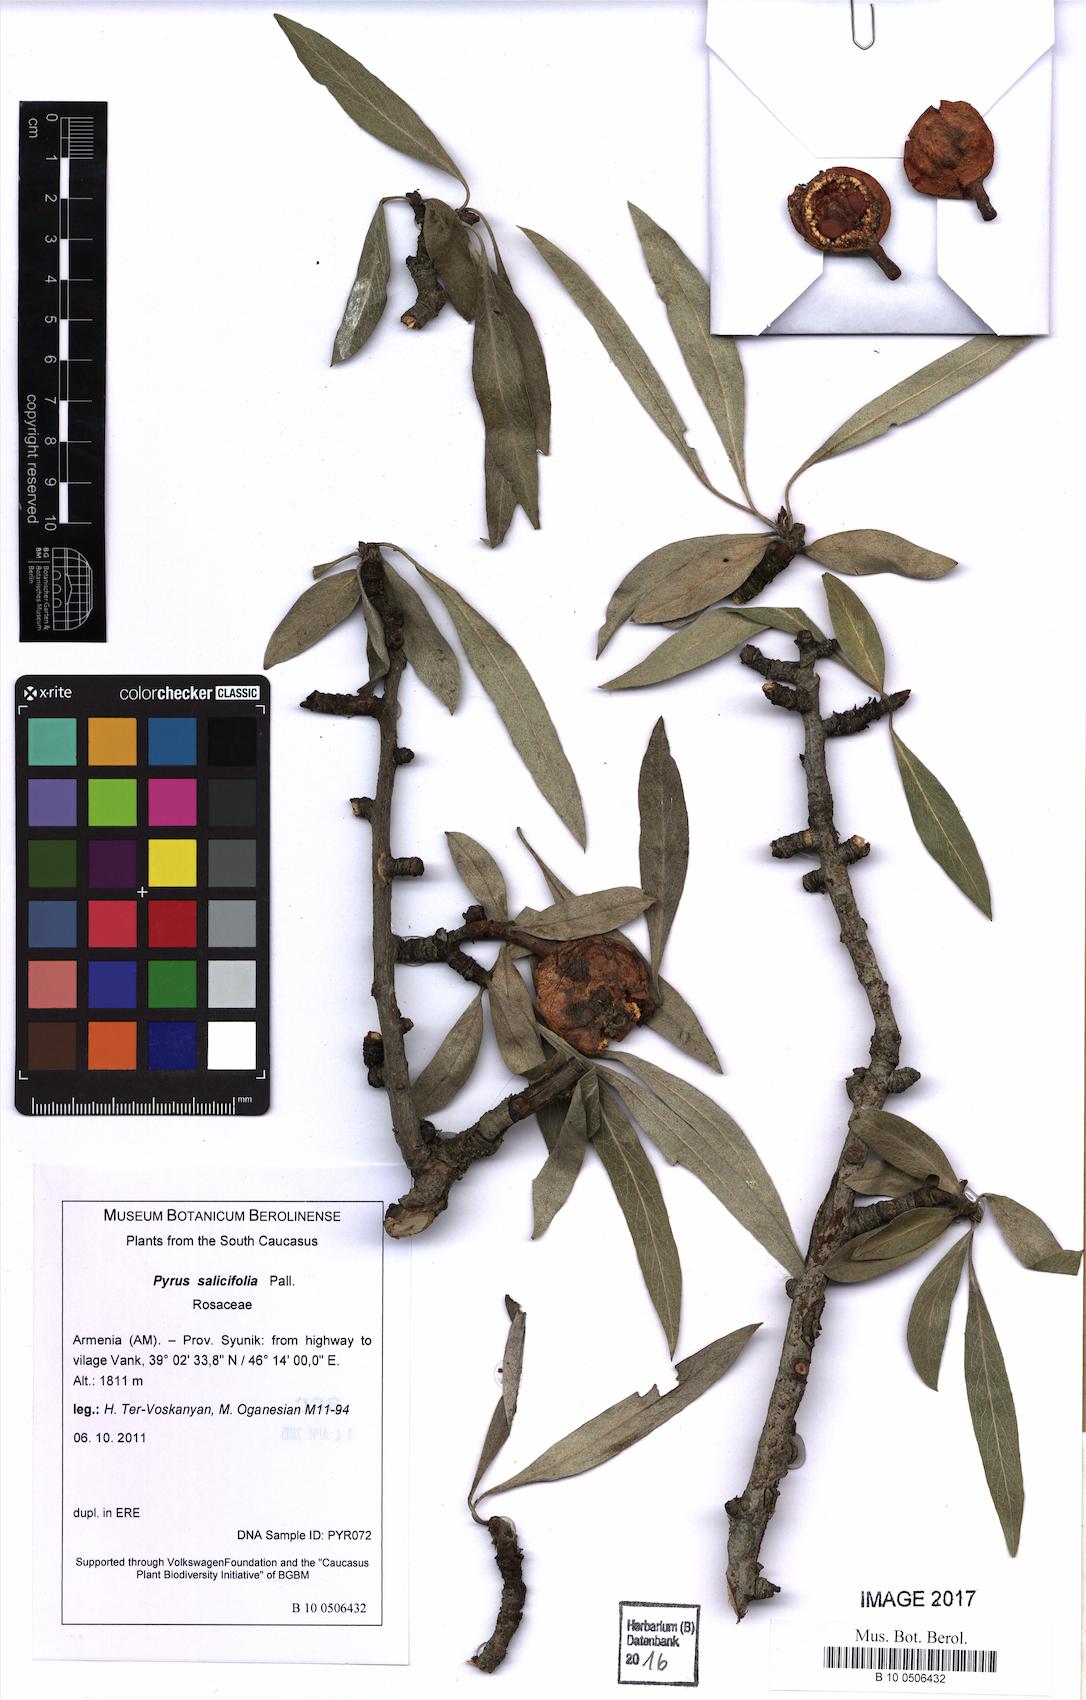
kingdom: Plantae
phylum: Tracheophyta
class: Magnoliopsida
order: Rosales
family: Rosaceae
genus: Pyrus
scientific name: Pyrus salicifolia
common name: Willow-leaved pear
